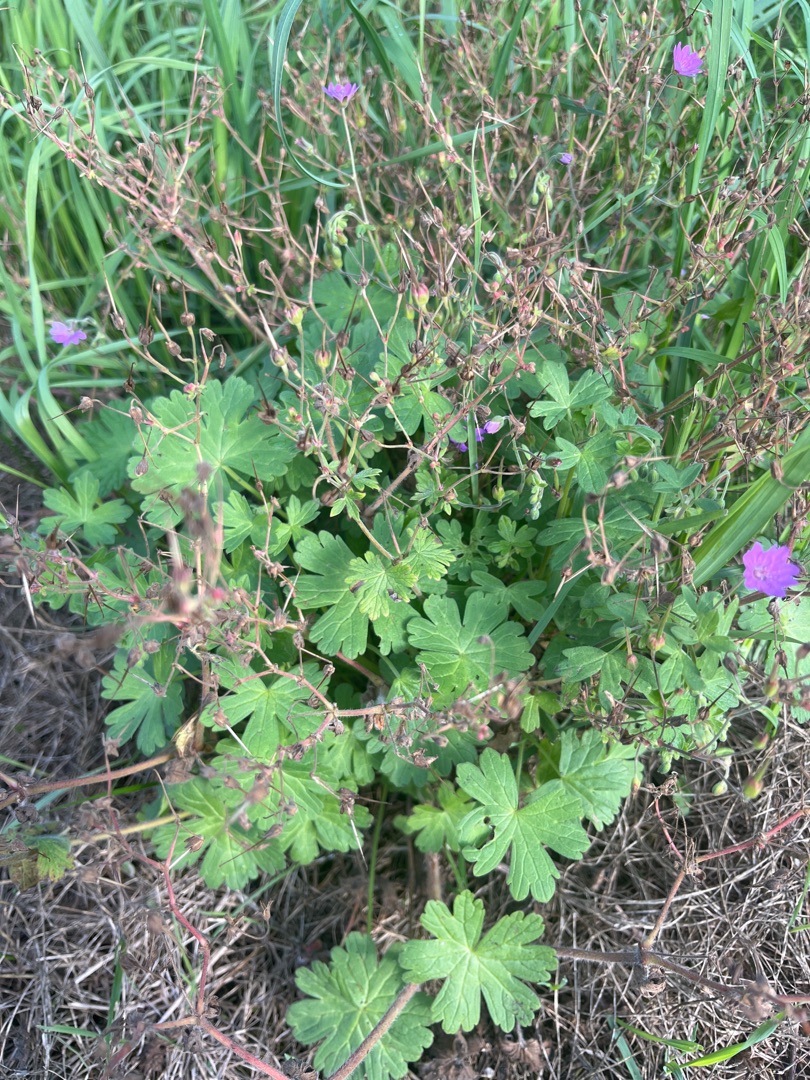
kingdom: Plantae
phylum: Tracheophyta
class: Magnoliopsida
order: Geraniales
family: Geraniaceae
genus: Geranium
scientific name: Geranium pyrenaicum
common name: Pyrenæisk storkenæb
